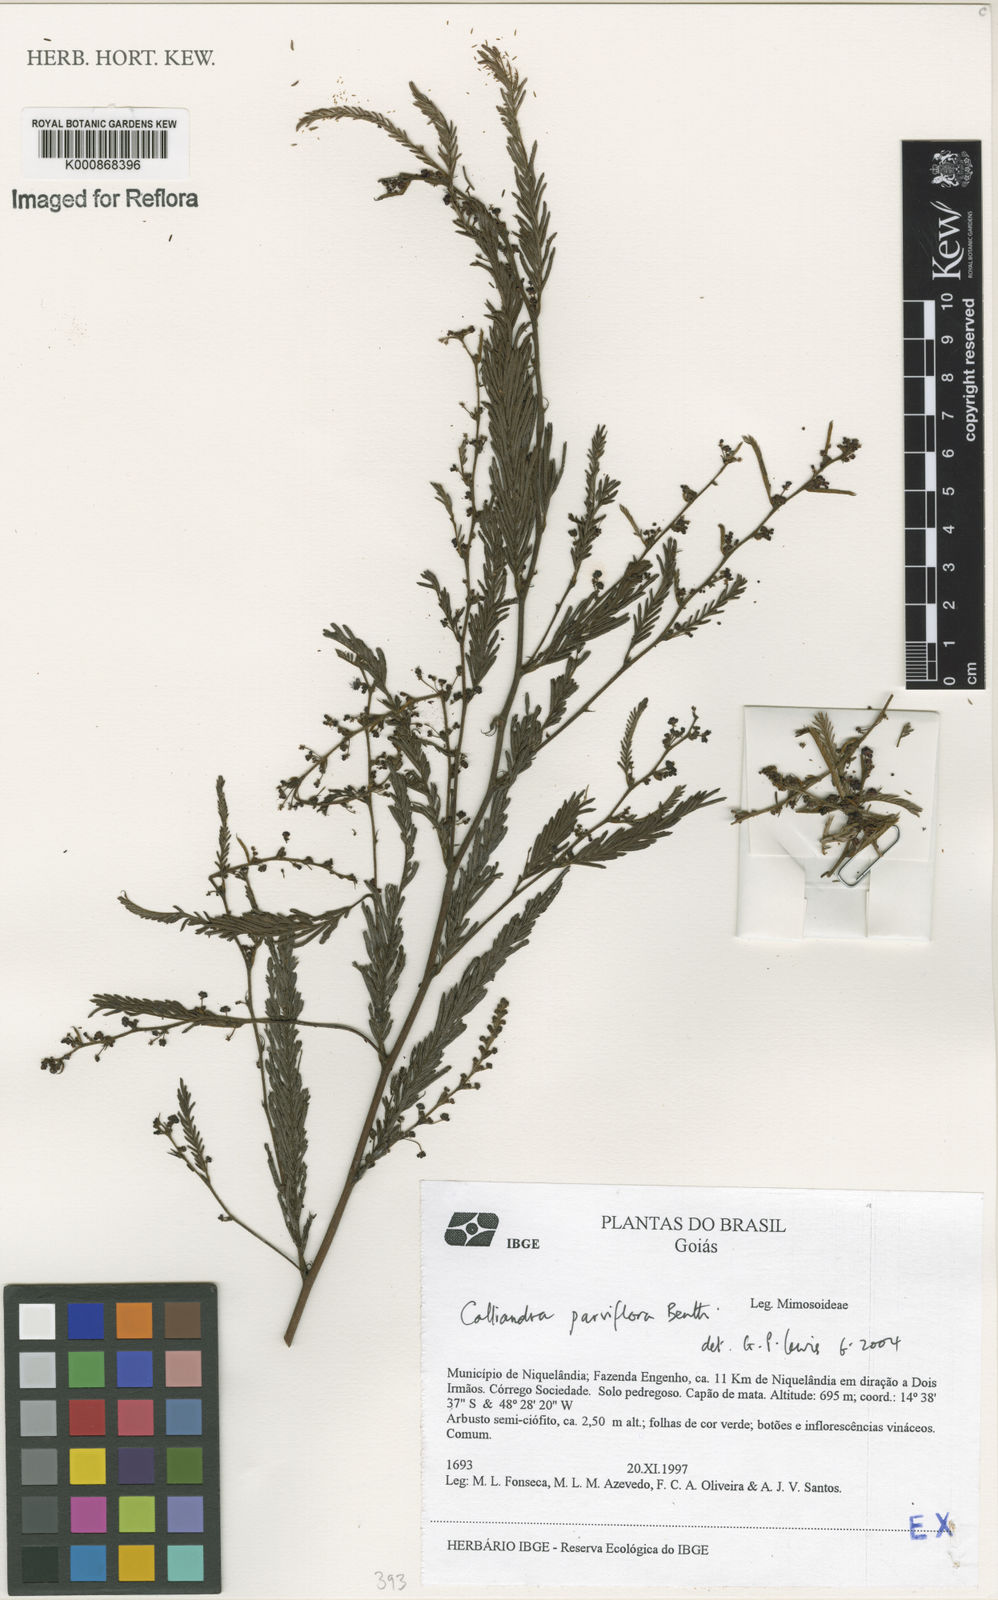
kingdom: Plantae
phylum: Tracheophyta
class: Magnoliopsida
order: Fabales
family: Fabaceae
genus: Calliandra
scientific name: Calliandra parviflora
